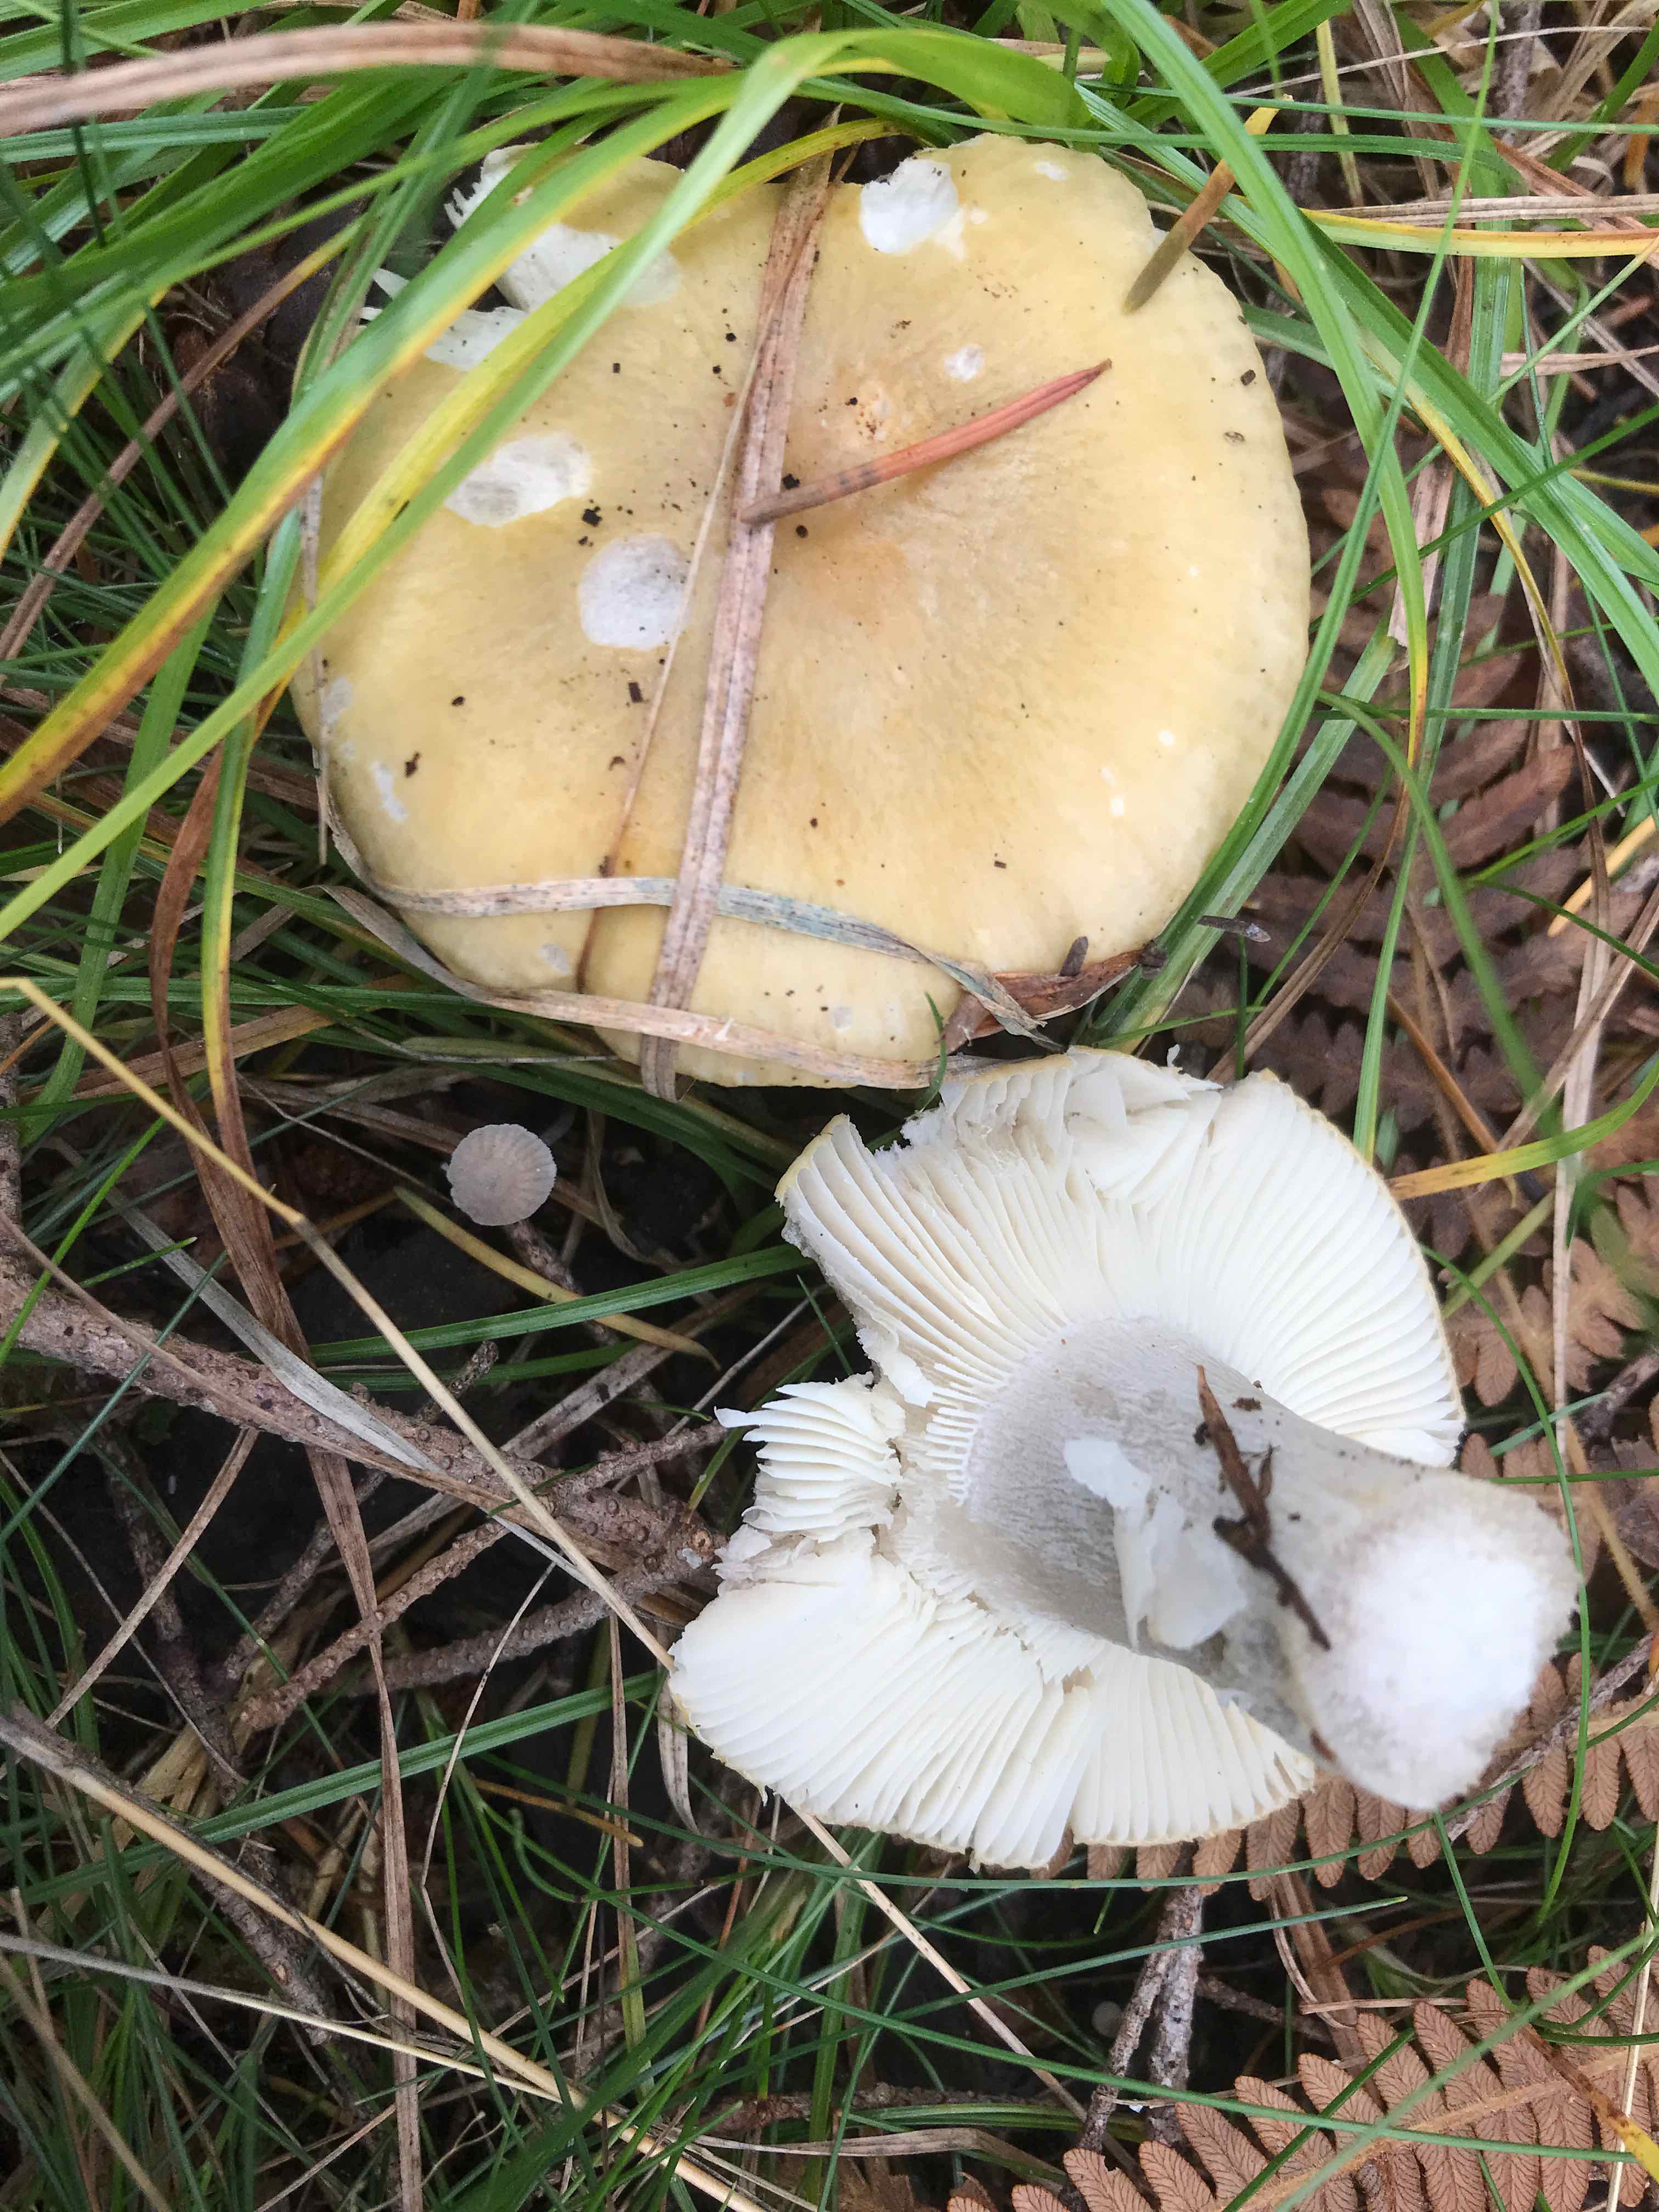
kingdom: Fungi
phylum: Basidiomycota
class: Agaricomycetes
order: Russulales
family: Russulaceae
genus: Russula
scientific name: Russula ochroleuca
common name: okkergul skørhat
